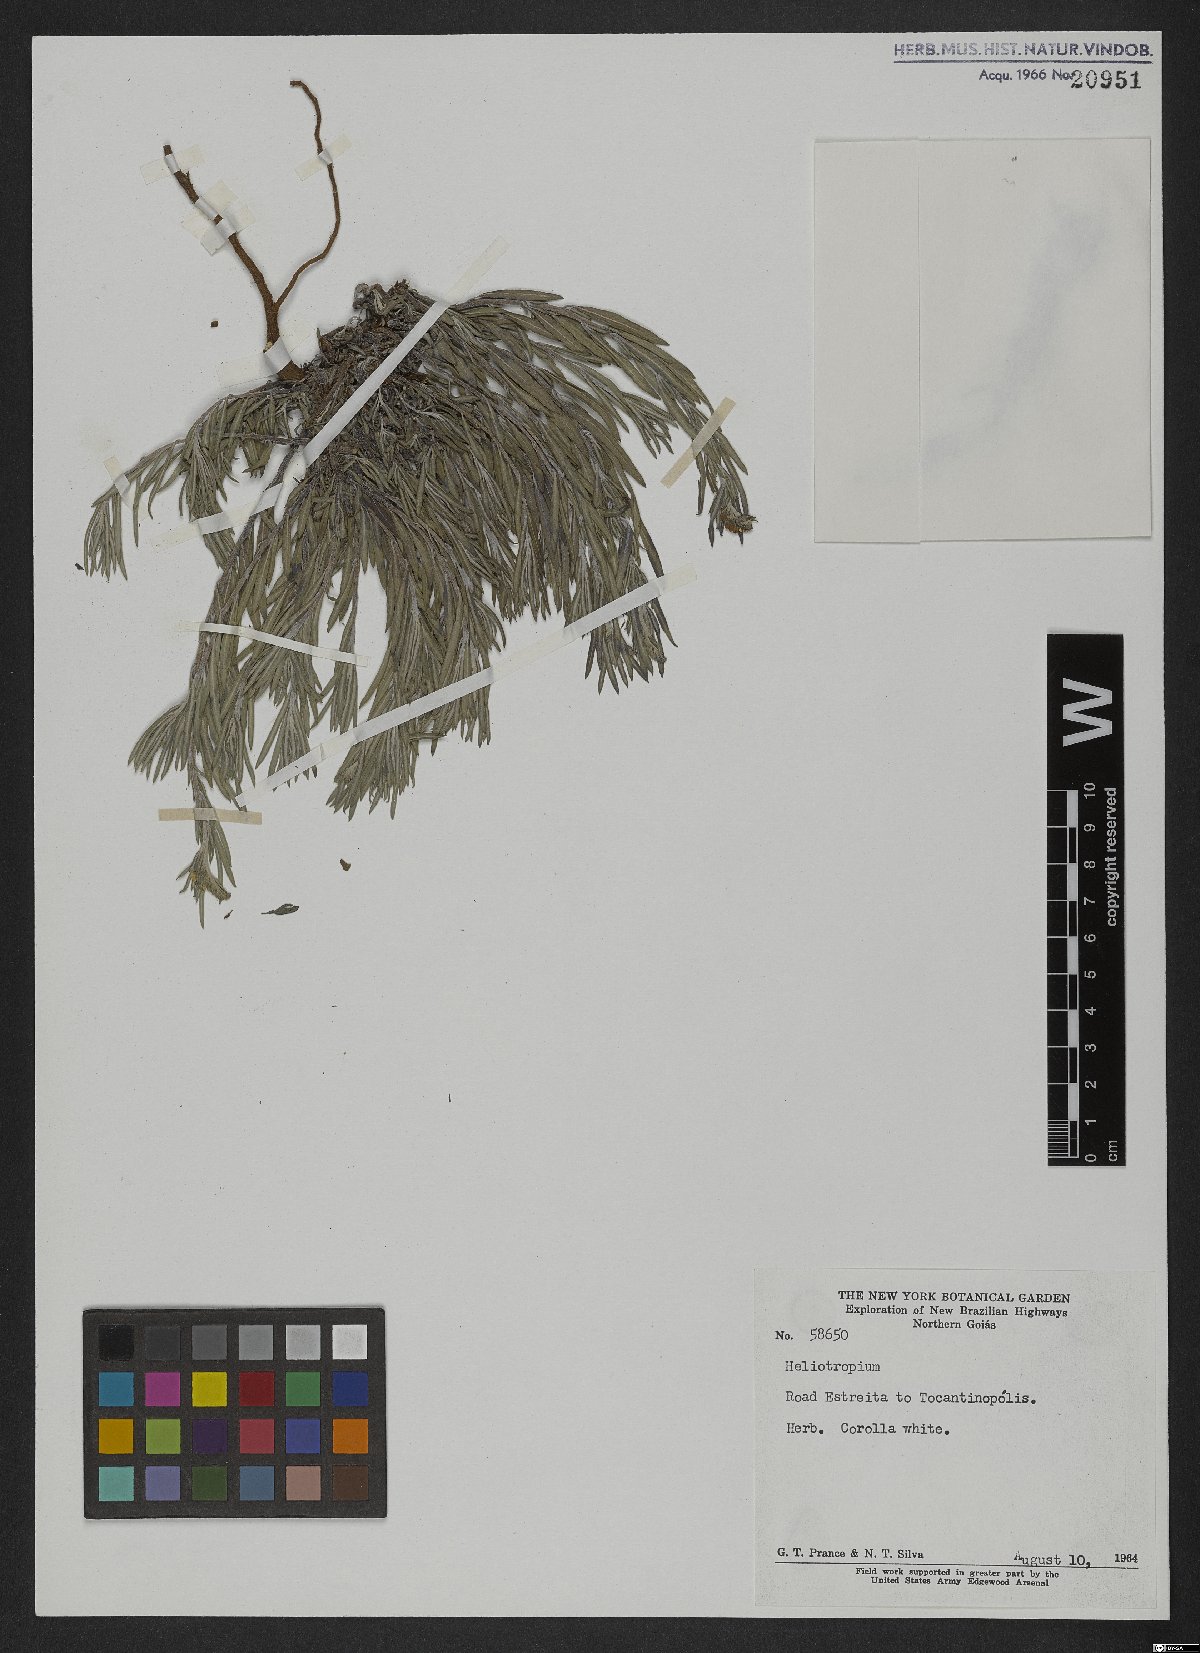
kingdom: Plantae
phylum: Tracheophyta
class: Magnoliopsida
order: Boraginales
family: Heliotropiaceae
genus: Heliotropium
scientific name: Heliotropium
